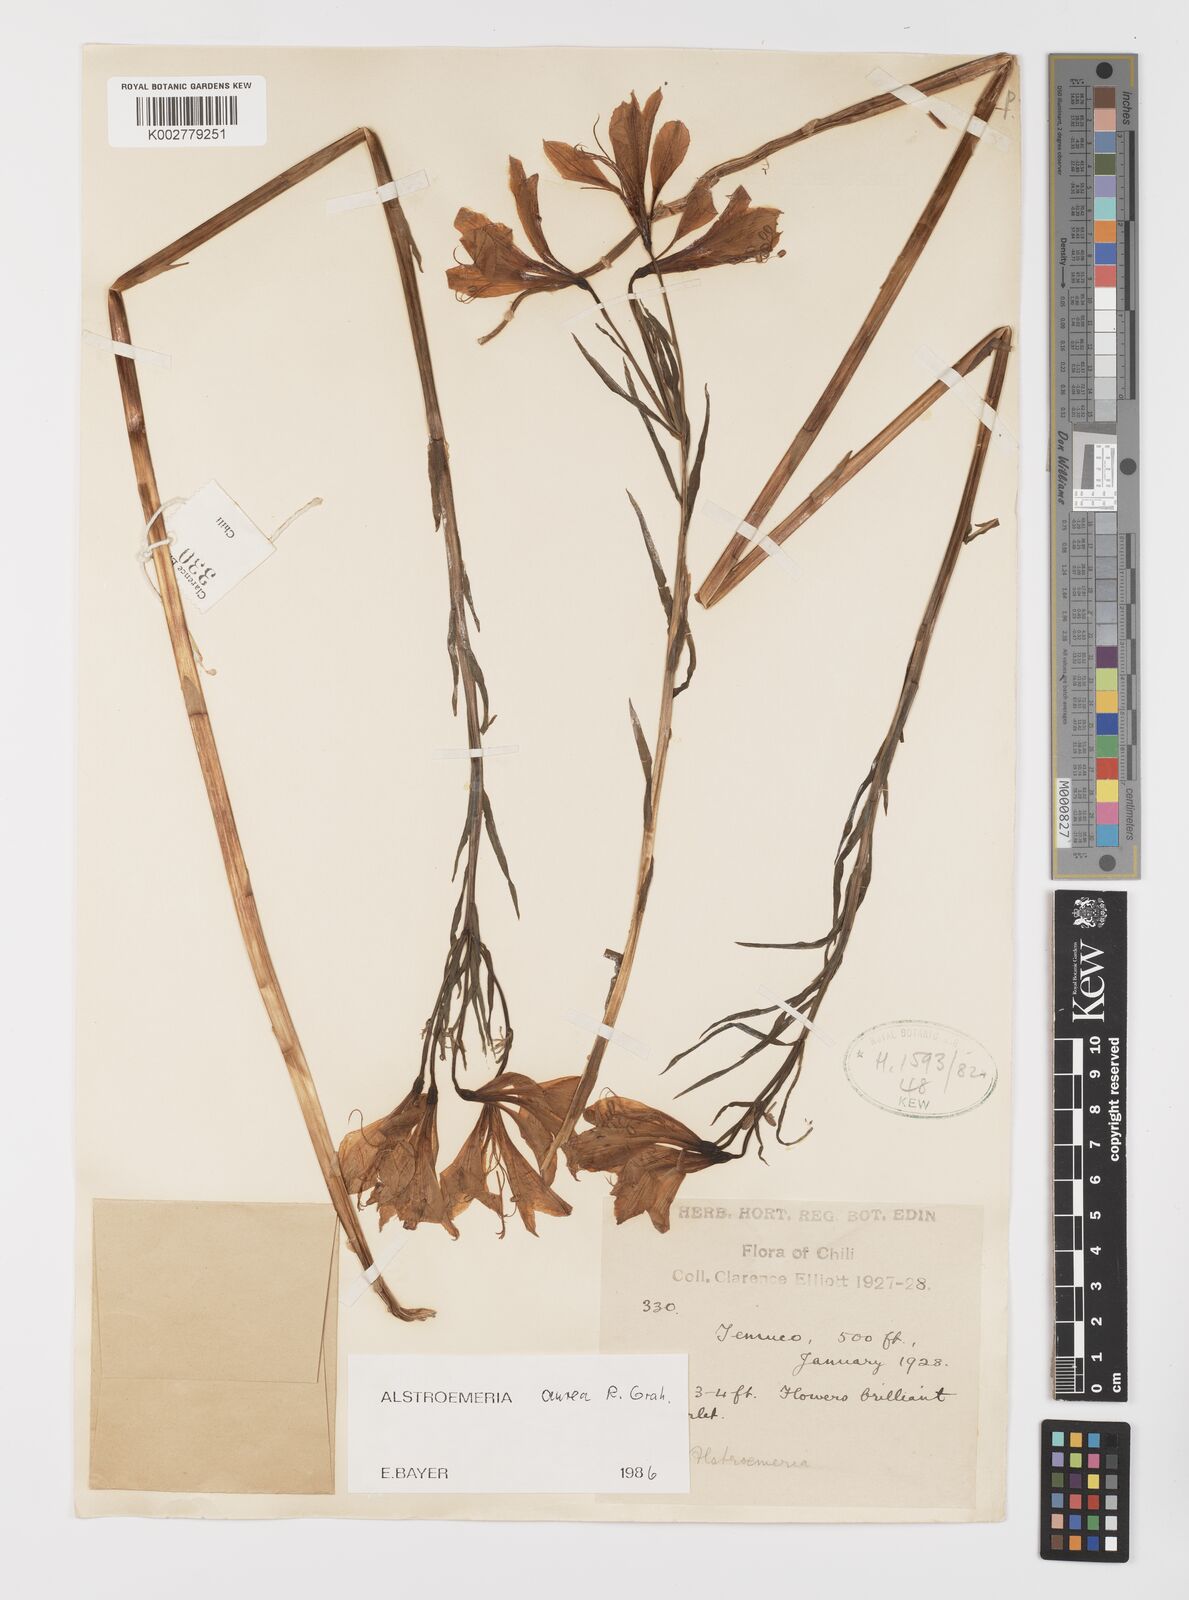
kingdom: Plantae
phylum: Tracheophyta
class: Liliopsida
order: Liliales
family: Alstroemeriaceae
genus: Alstroemeria
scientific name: Alstroemeria aurea
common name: Peruvian lily
